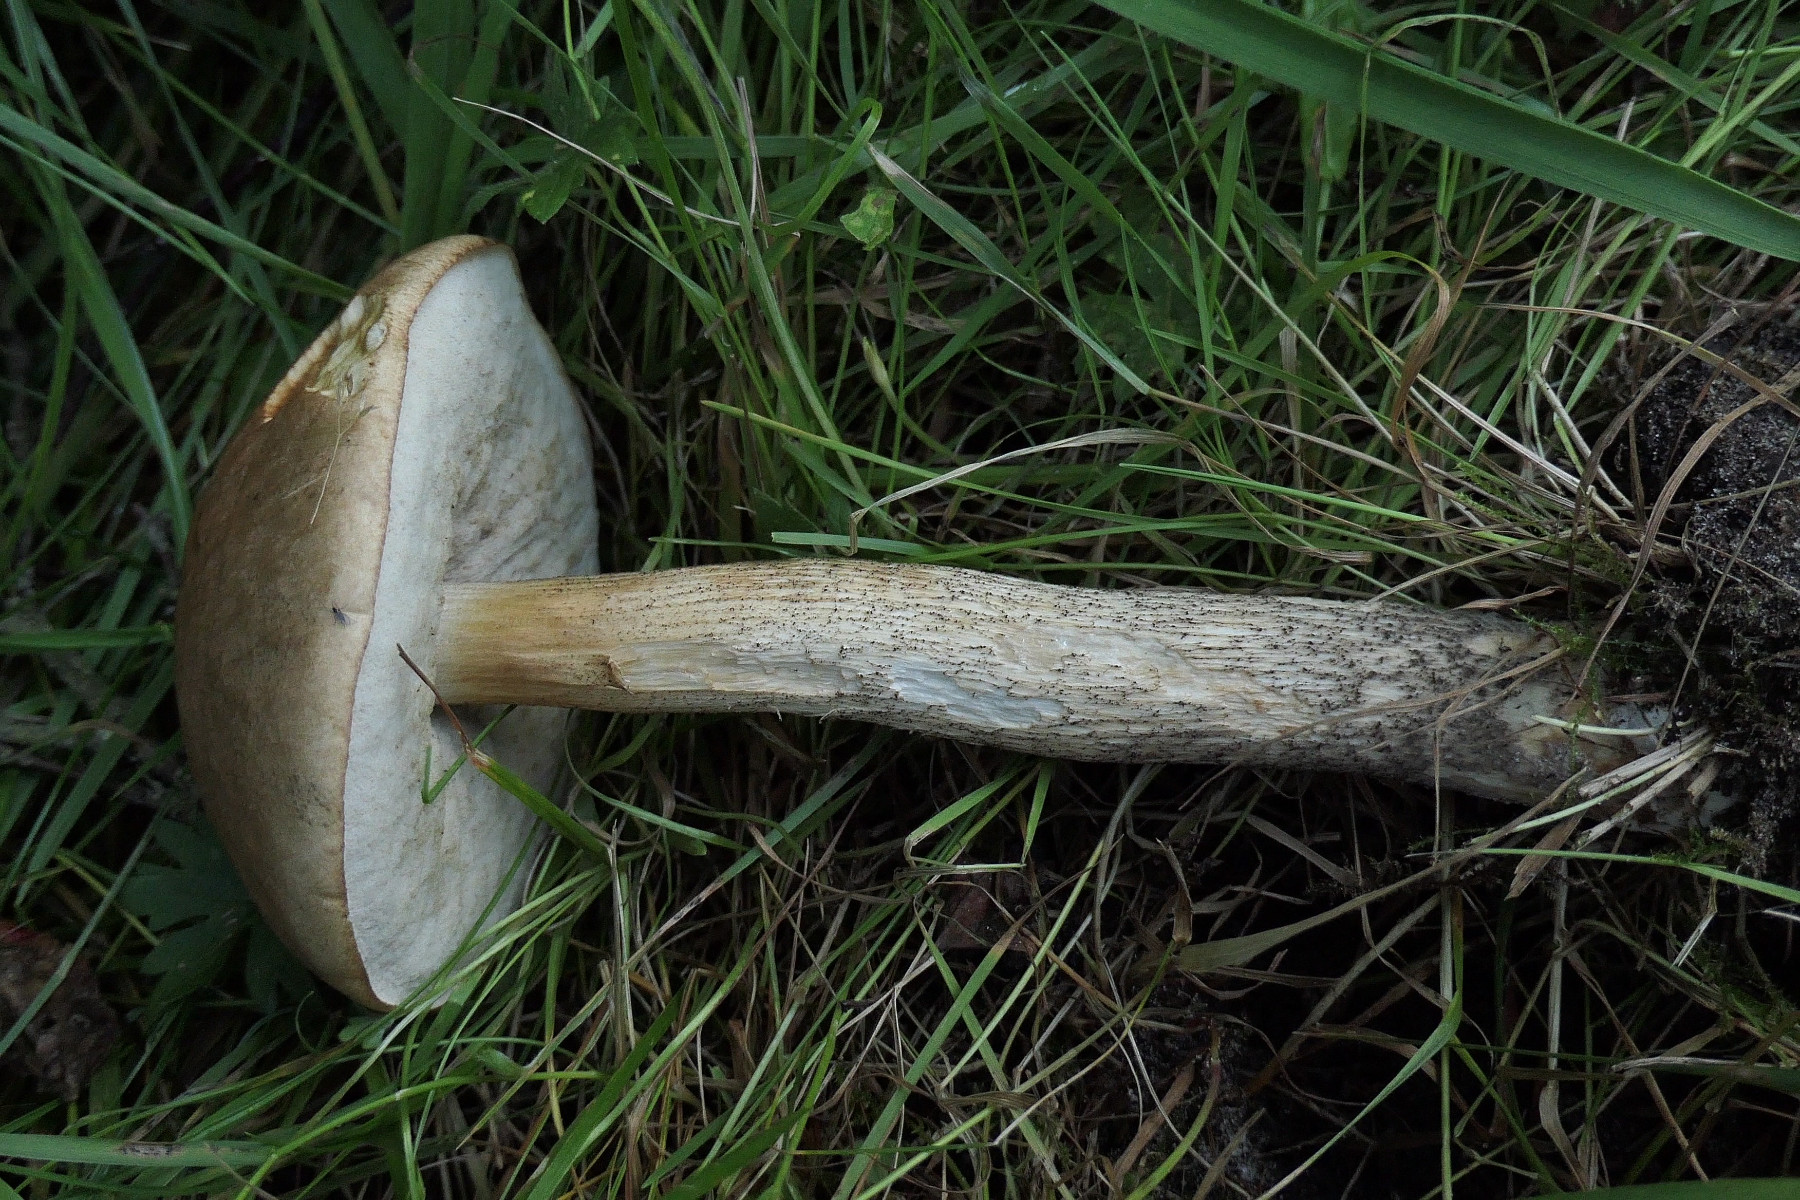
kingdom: Fungi
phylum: Basidiomycota
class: Agaricomycetes
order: Boletales
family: Boletaceae
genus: Leccinum
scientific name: Leccinum cyaneobasileucum
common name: almindelig skælrørhat
